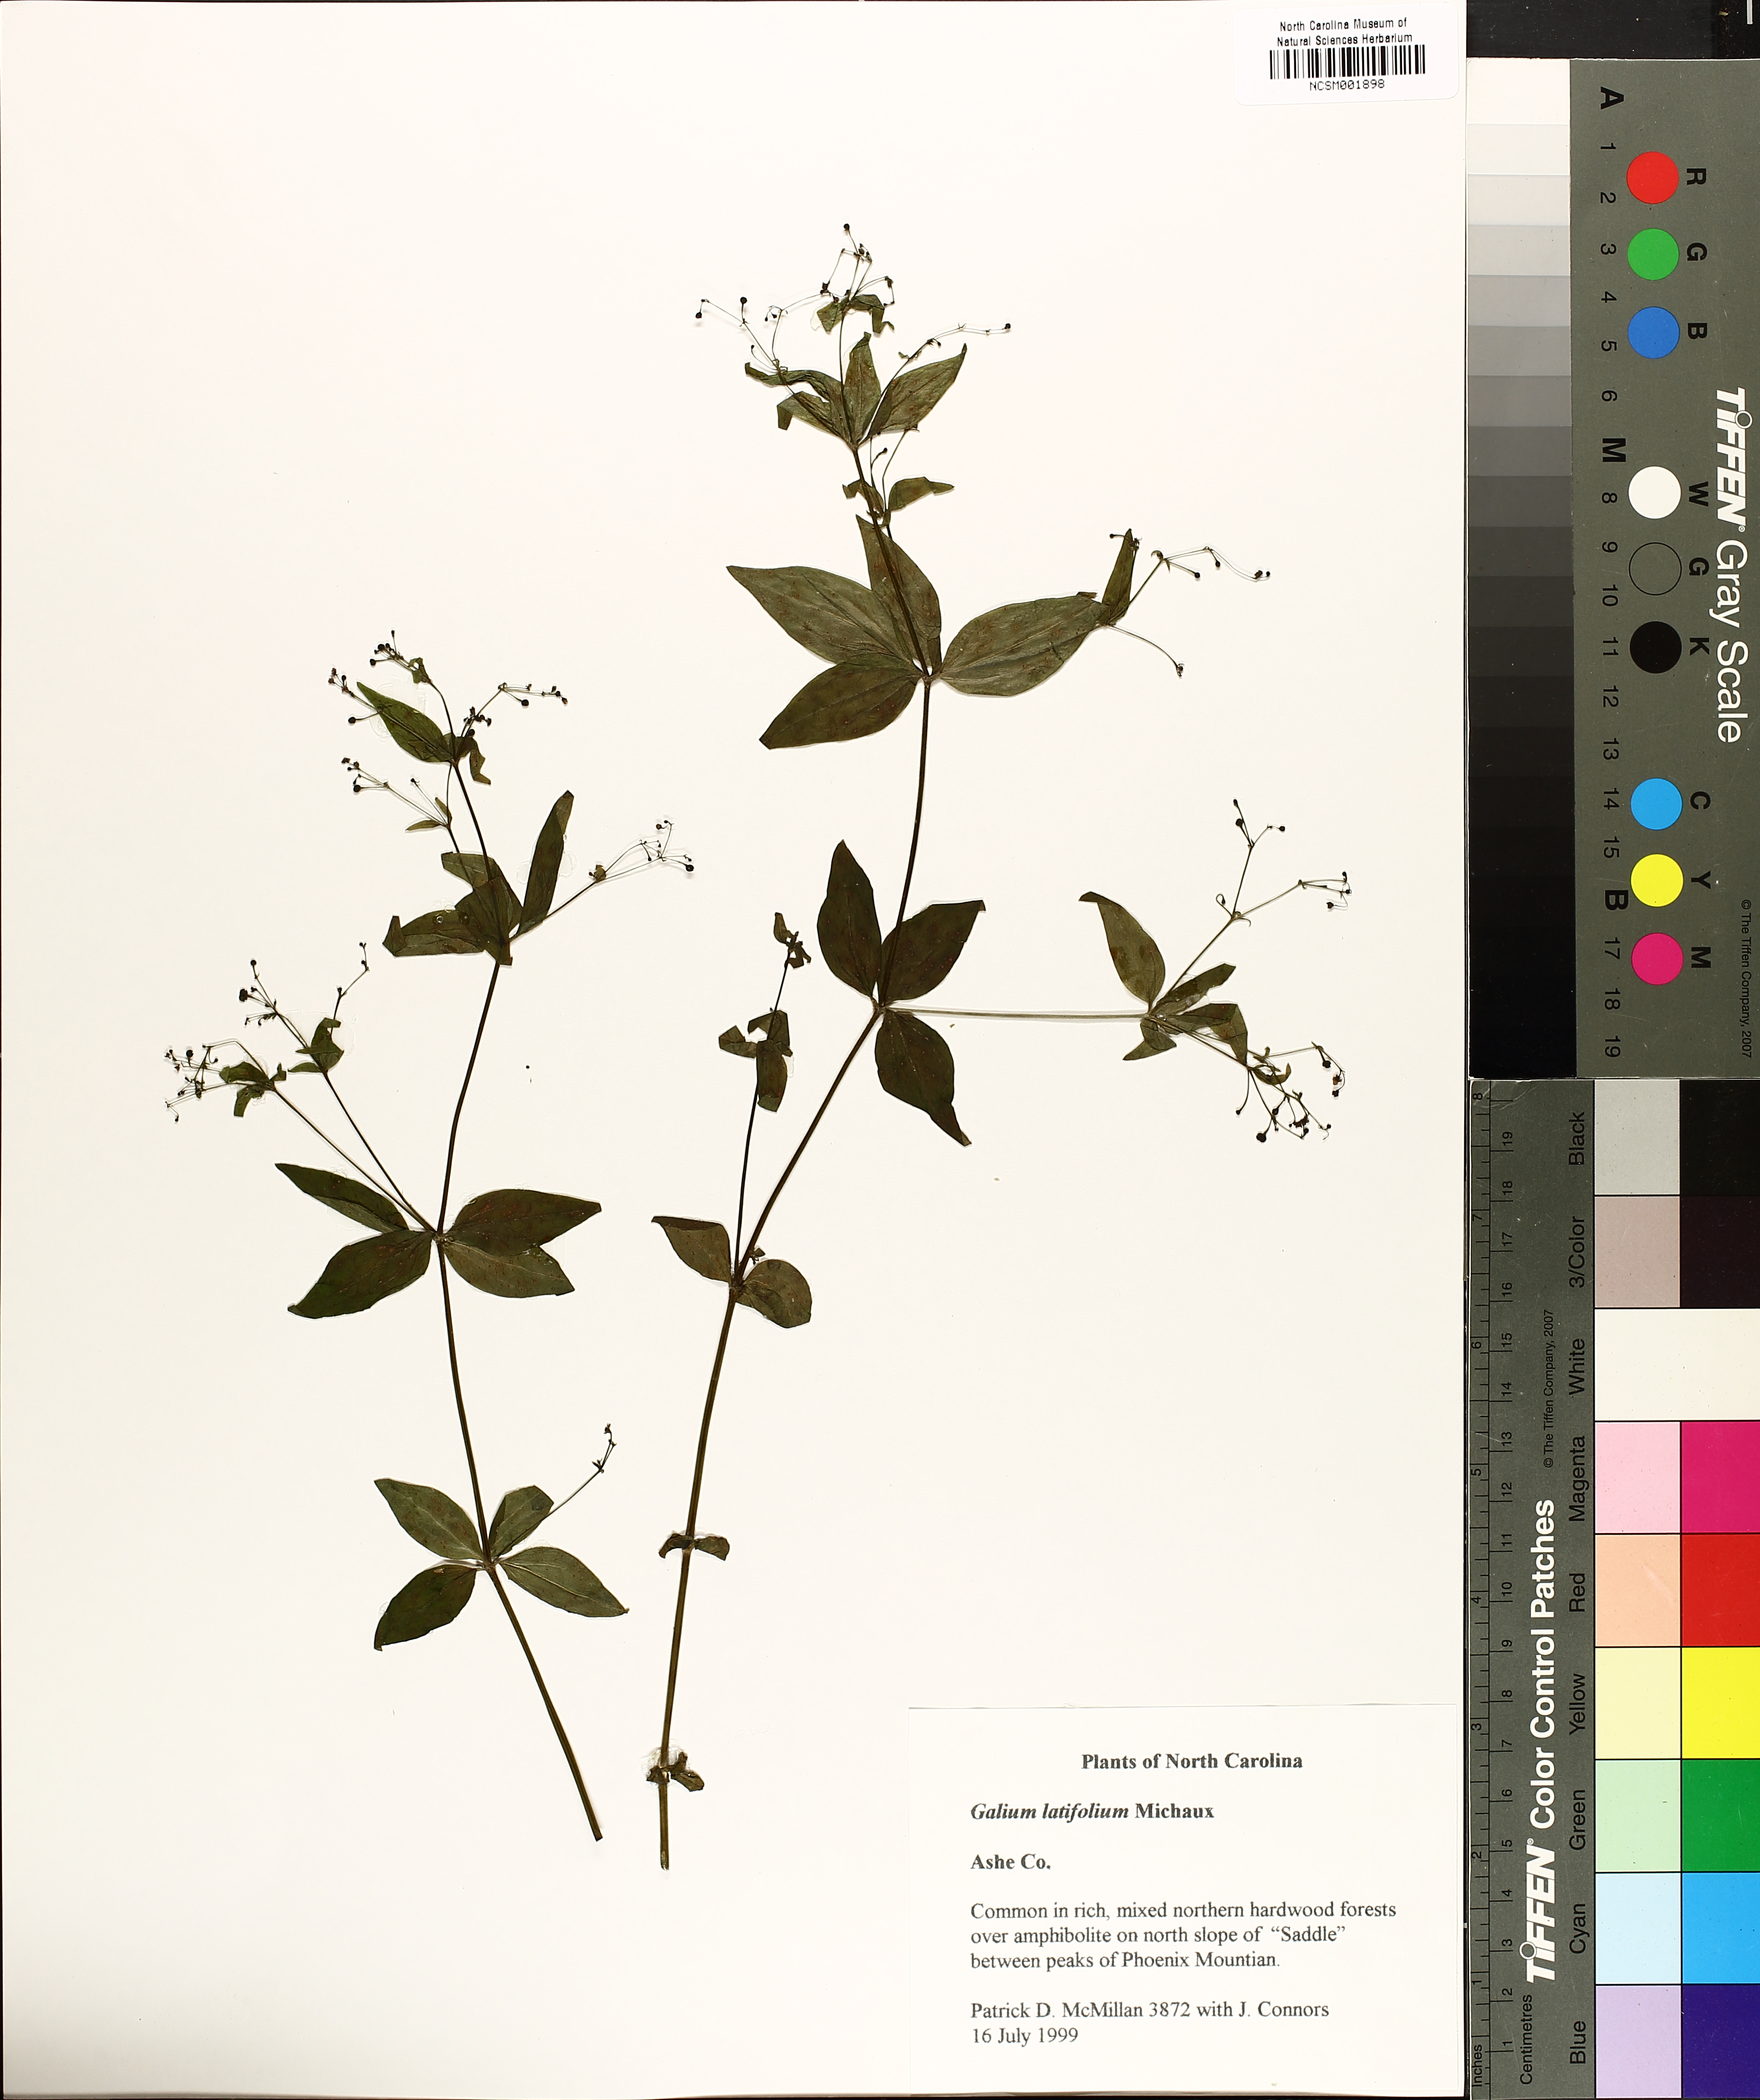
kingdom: Plantae
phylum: Tracheophyta
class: Magnoliopsida
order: Gentianales
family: Rubiaceae
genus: Galium
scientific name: Galium latifolium
